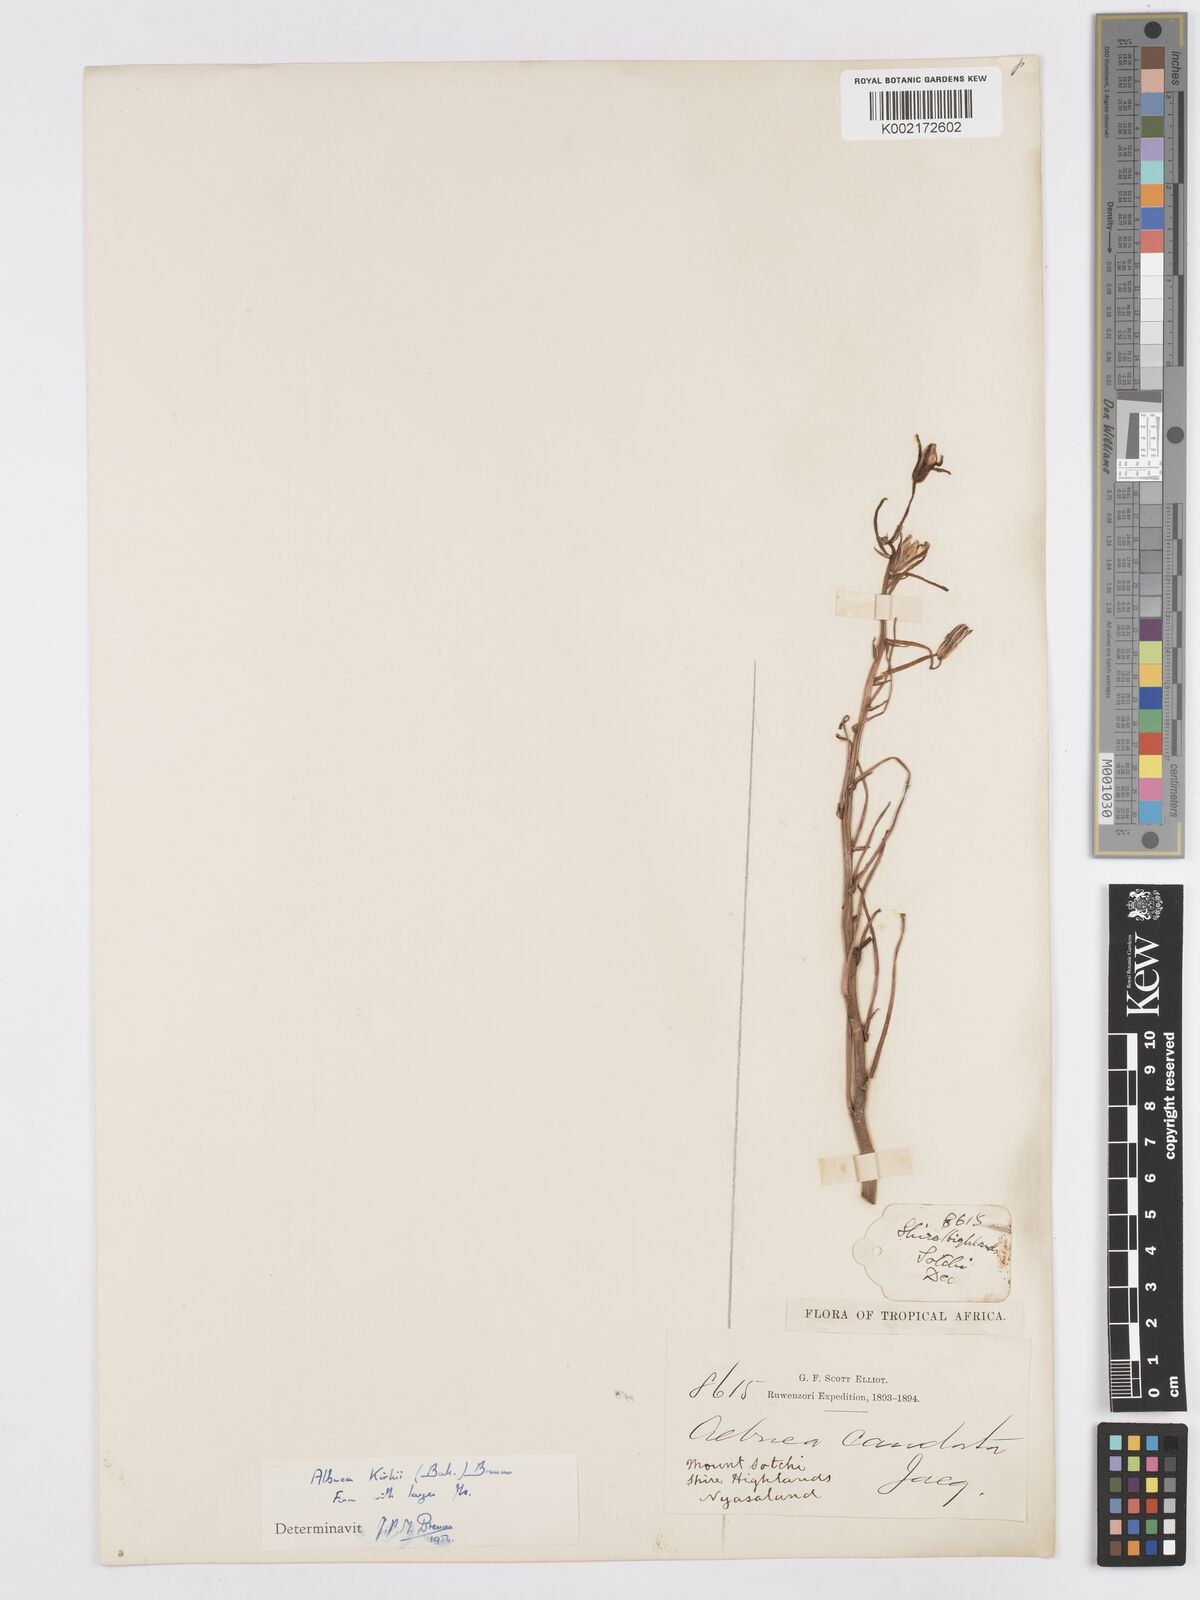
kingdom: Plantae
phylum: Tracheophyta
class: Liliopsida
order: Asparagales
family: Asparagaceae
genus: Albuca
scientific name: Albuca kirkii
